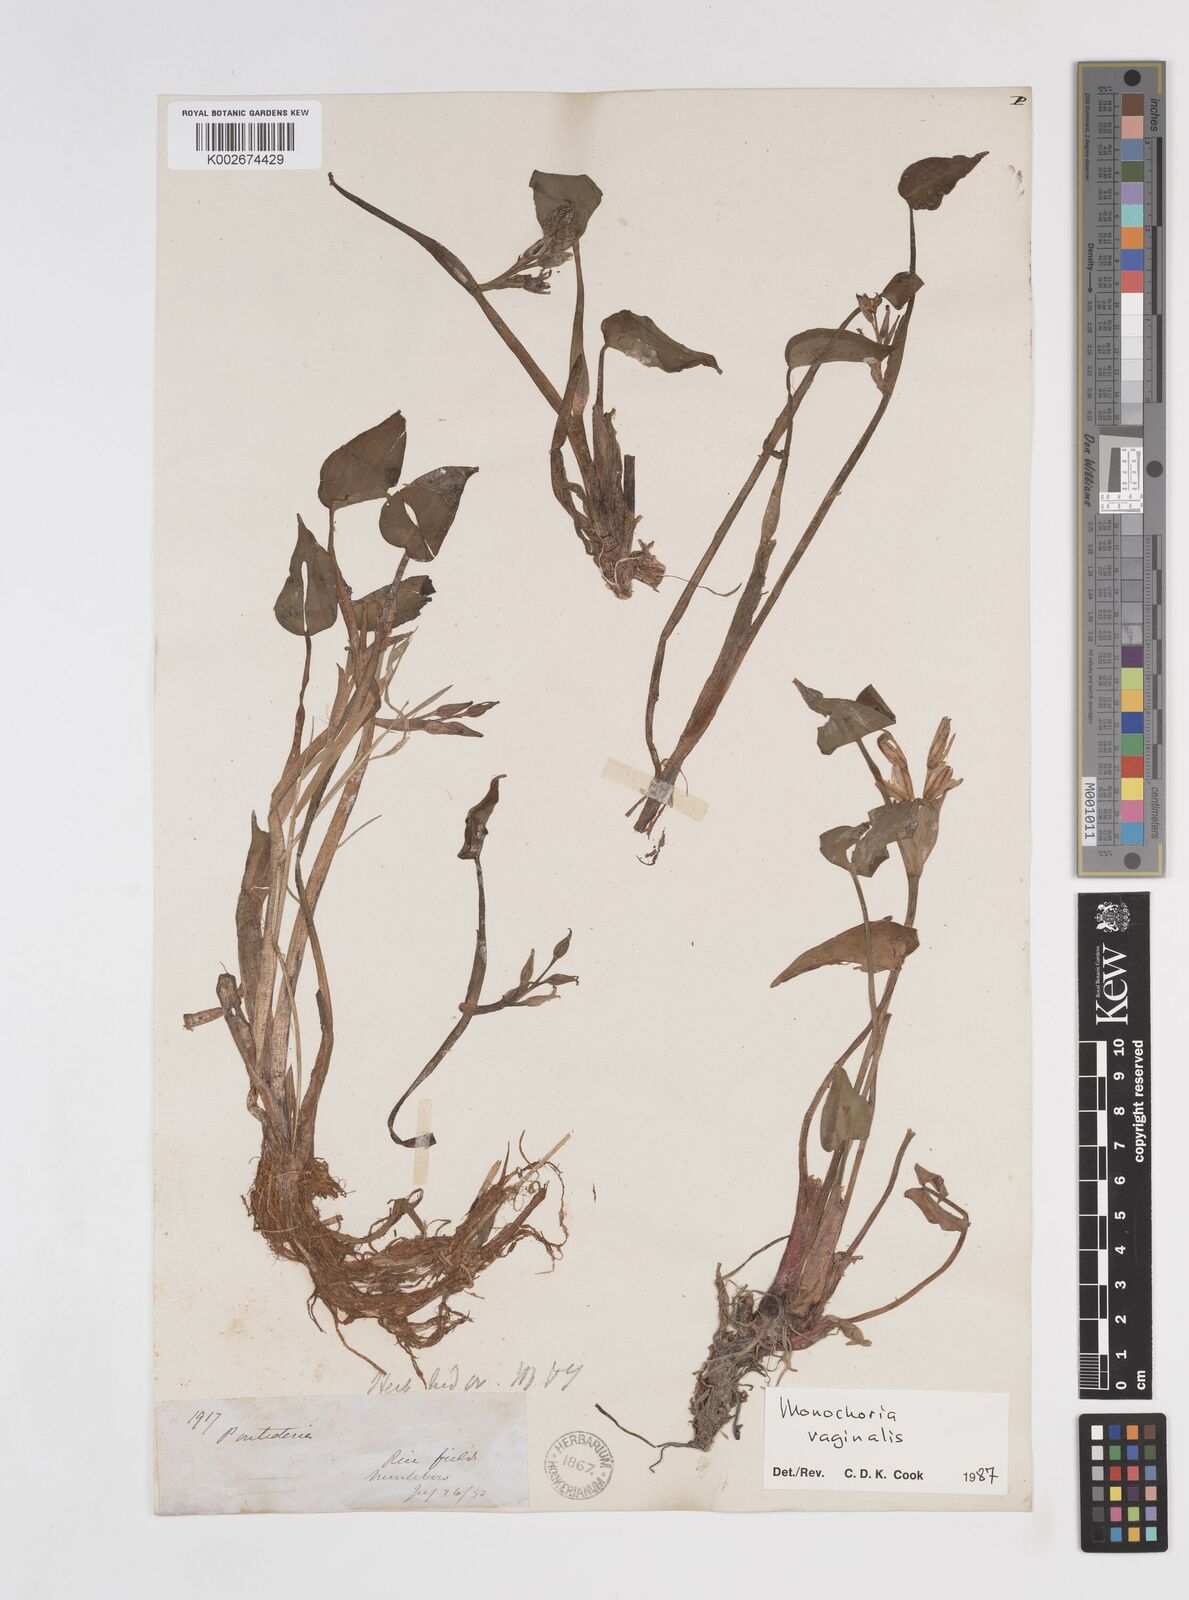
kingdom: Plantae
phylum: Tracheophyta
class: Liliopsida
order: Commelinales
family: Pontederiaceae
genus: Pontederia
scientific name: Pontederia vaginalis
